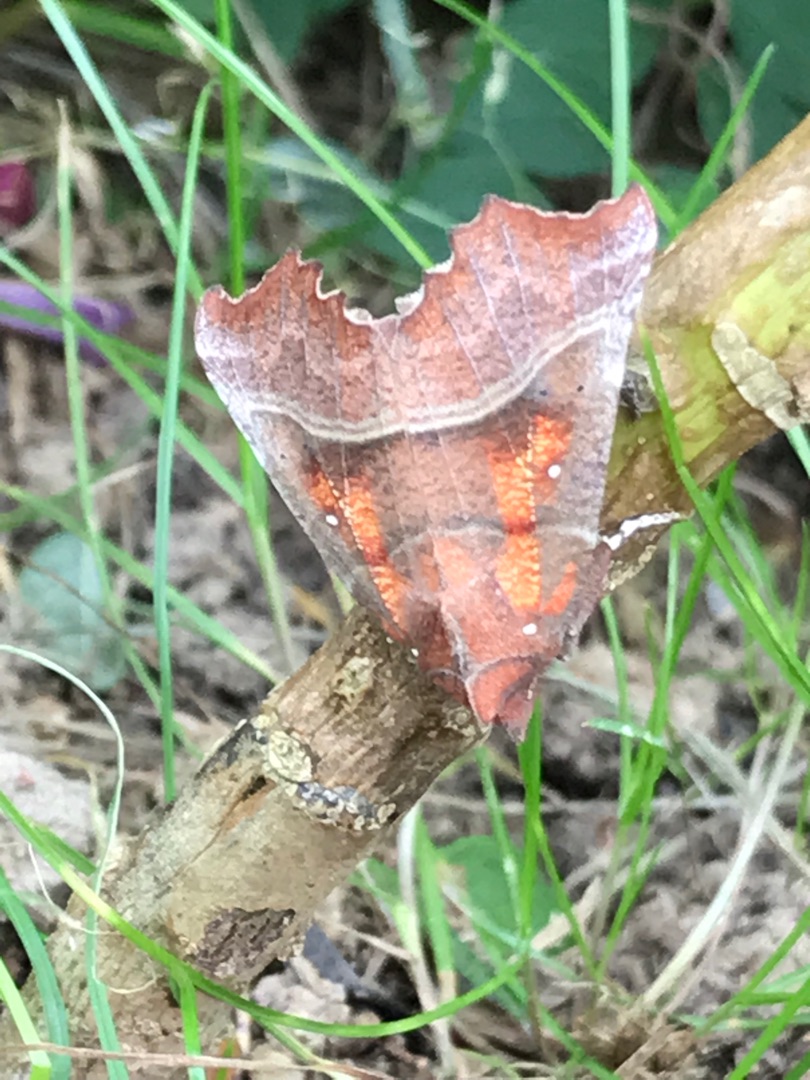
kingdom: Animalia
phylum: Arthropoda
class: Insecta
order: Lepidoptera
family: Erebidae
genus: Scoliopteryx
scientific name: Scoliopteryx libatrix
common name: Husmoderugle
